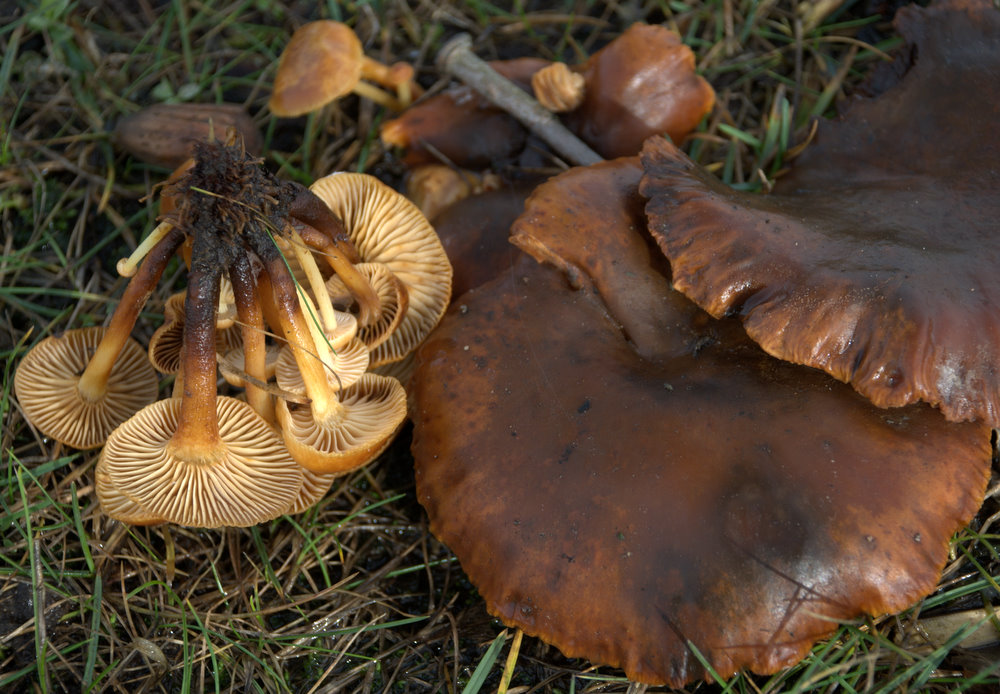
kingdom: Fungi
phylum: Basidiomycota
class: Agaricomycetes
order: Agaricales
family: Physalacriaceae
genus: Flammulina
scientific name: Flammulina elastica
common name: pile-fløjlsfod
